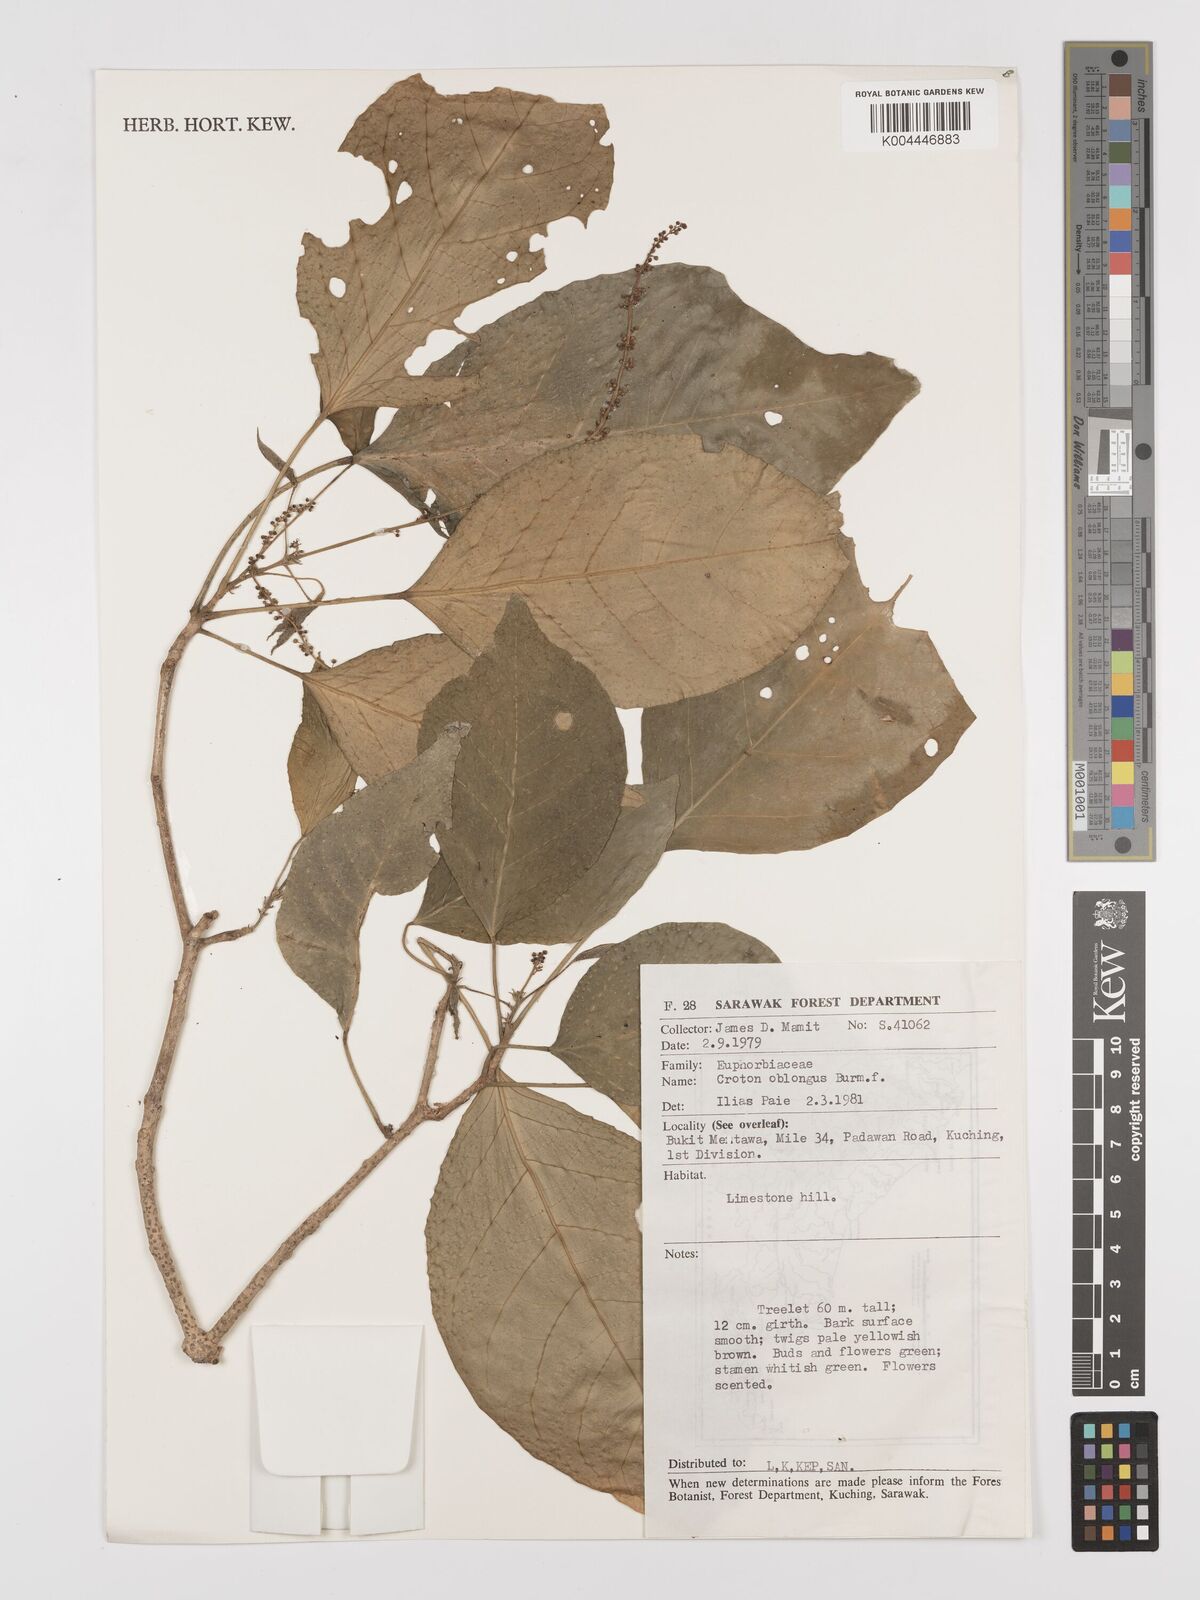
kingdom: Plantae
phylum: Tracheophyta
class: Magnoliopsida
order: Malpighiales
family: Euphorbiaceae
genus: Croton
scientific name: Croton oblongus
